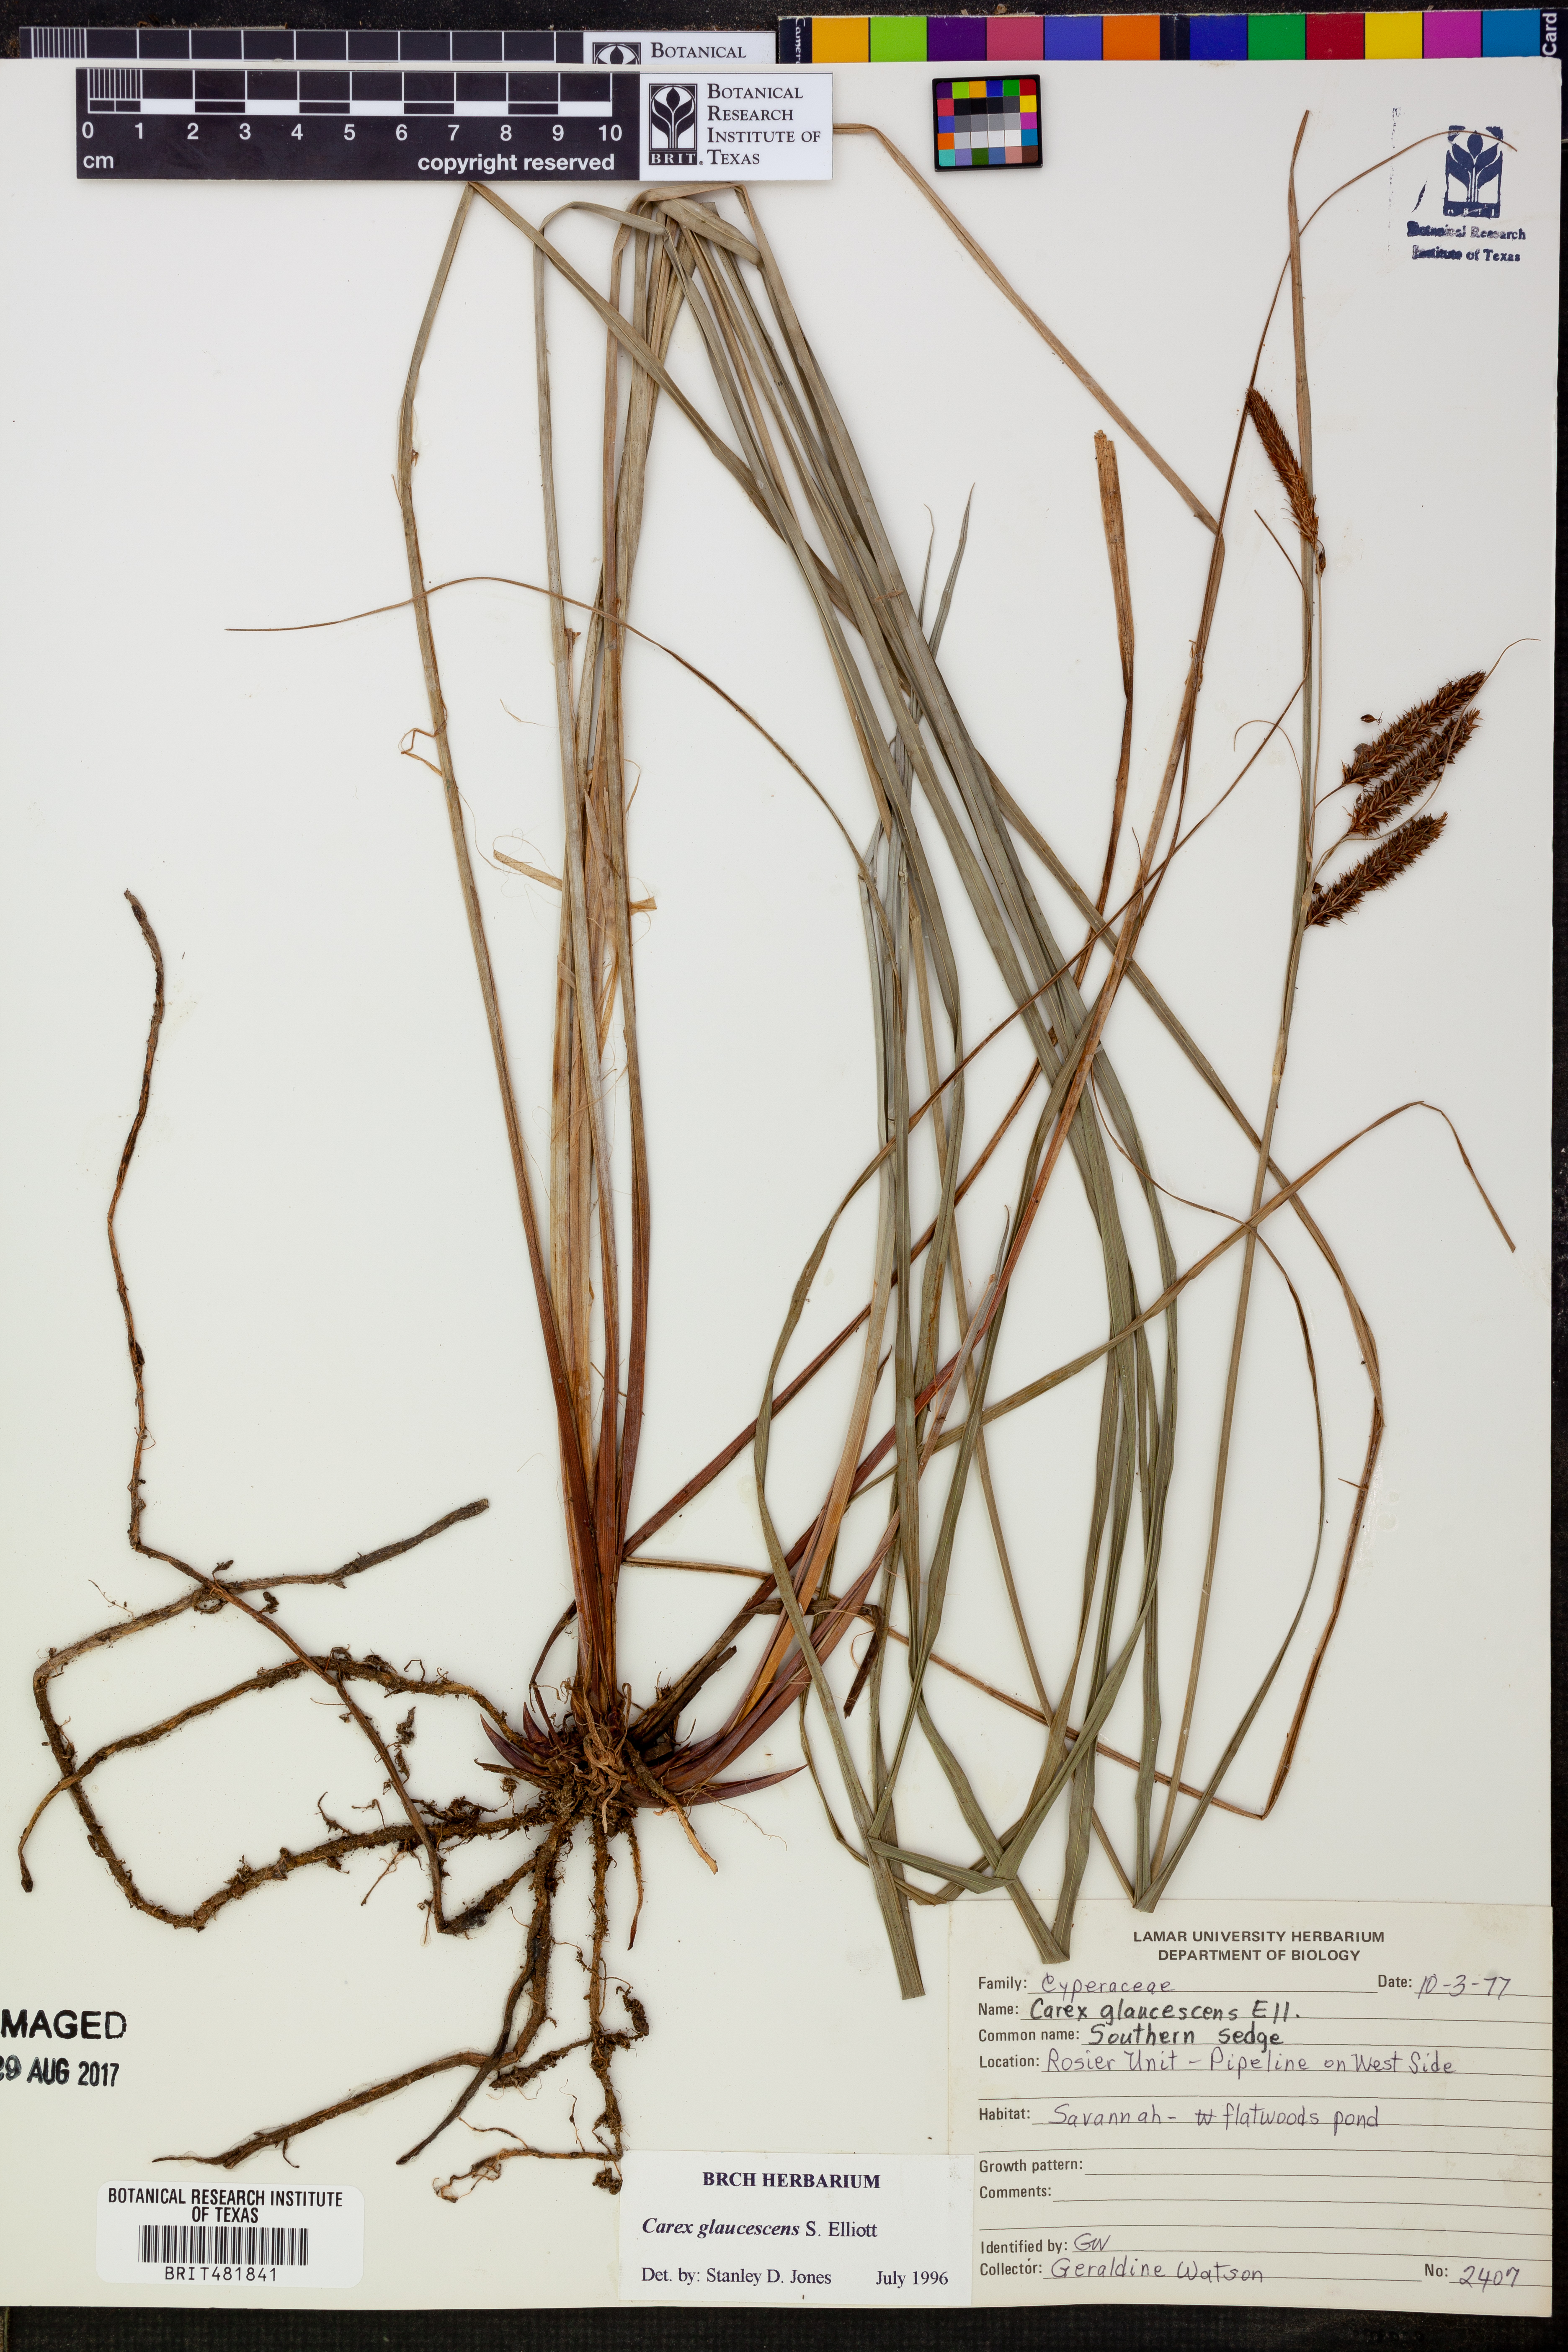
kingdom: Plantae
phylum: Tracheophyta
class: Liliopsida
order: Poales
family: Cyperaceae
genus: Carex
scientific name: Carex glaucescens
